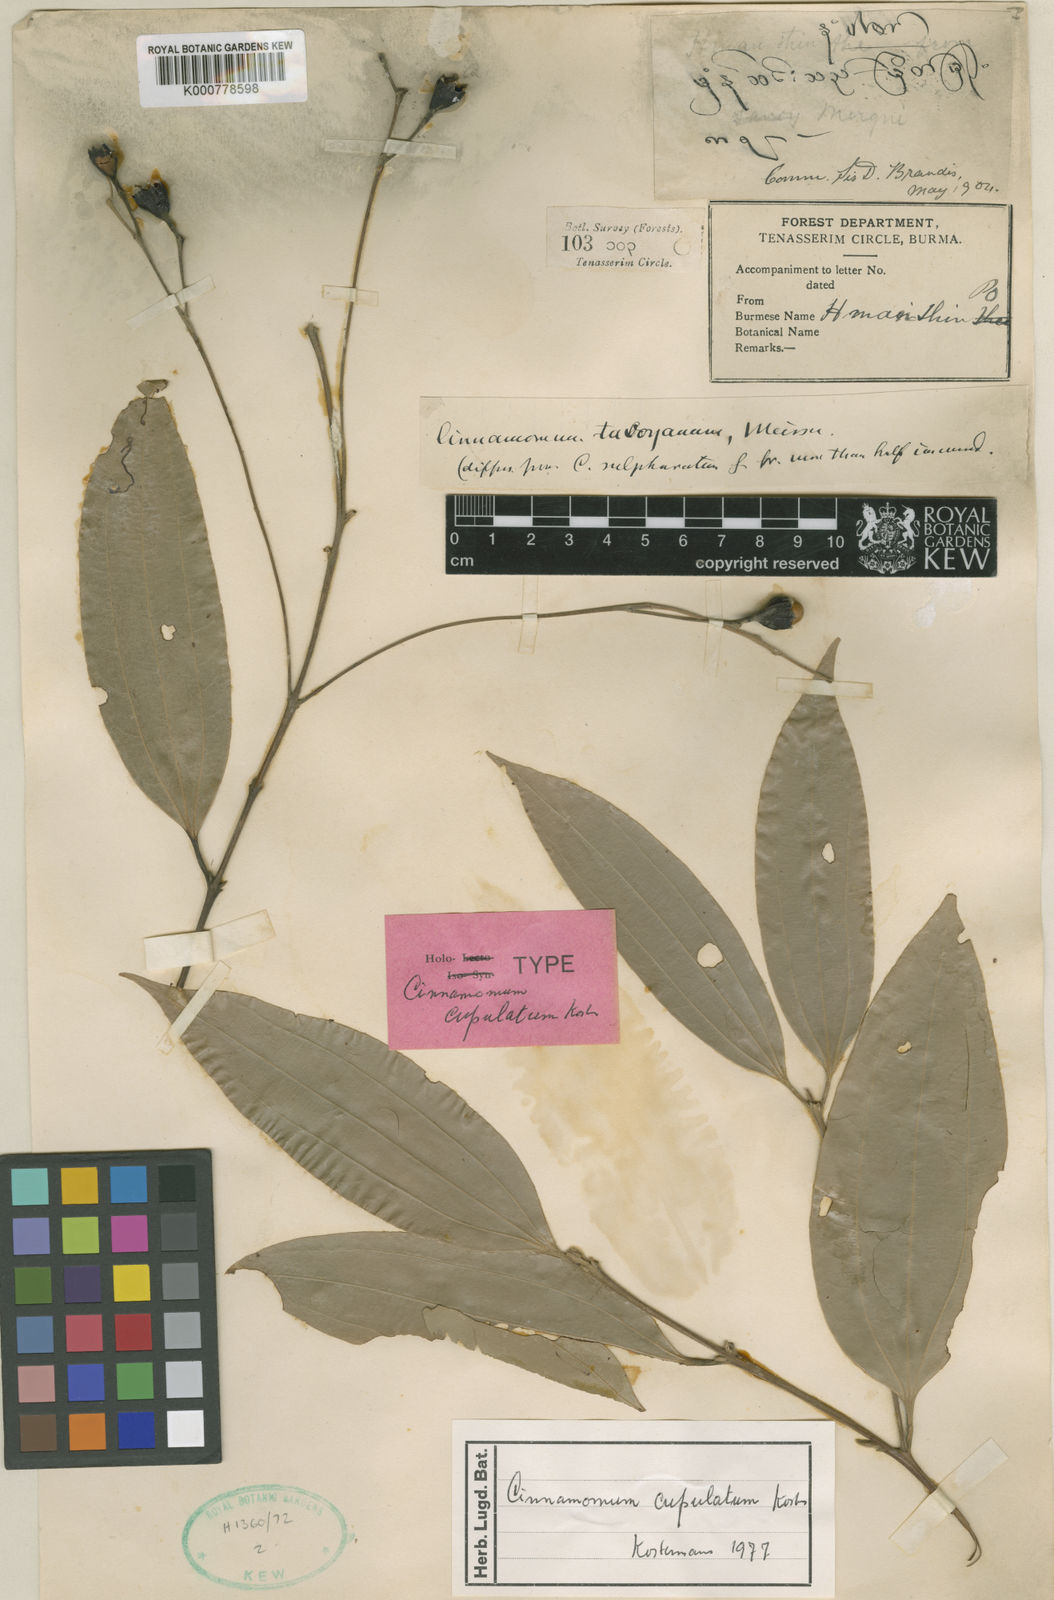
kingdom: Plantae
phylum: Tracheophyta
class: Magnoliopsida
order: Laurales
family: Lauraceae
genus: Cinnamomum
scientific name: Cinnamomum cupulatum
